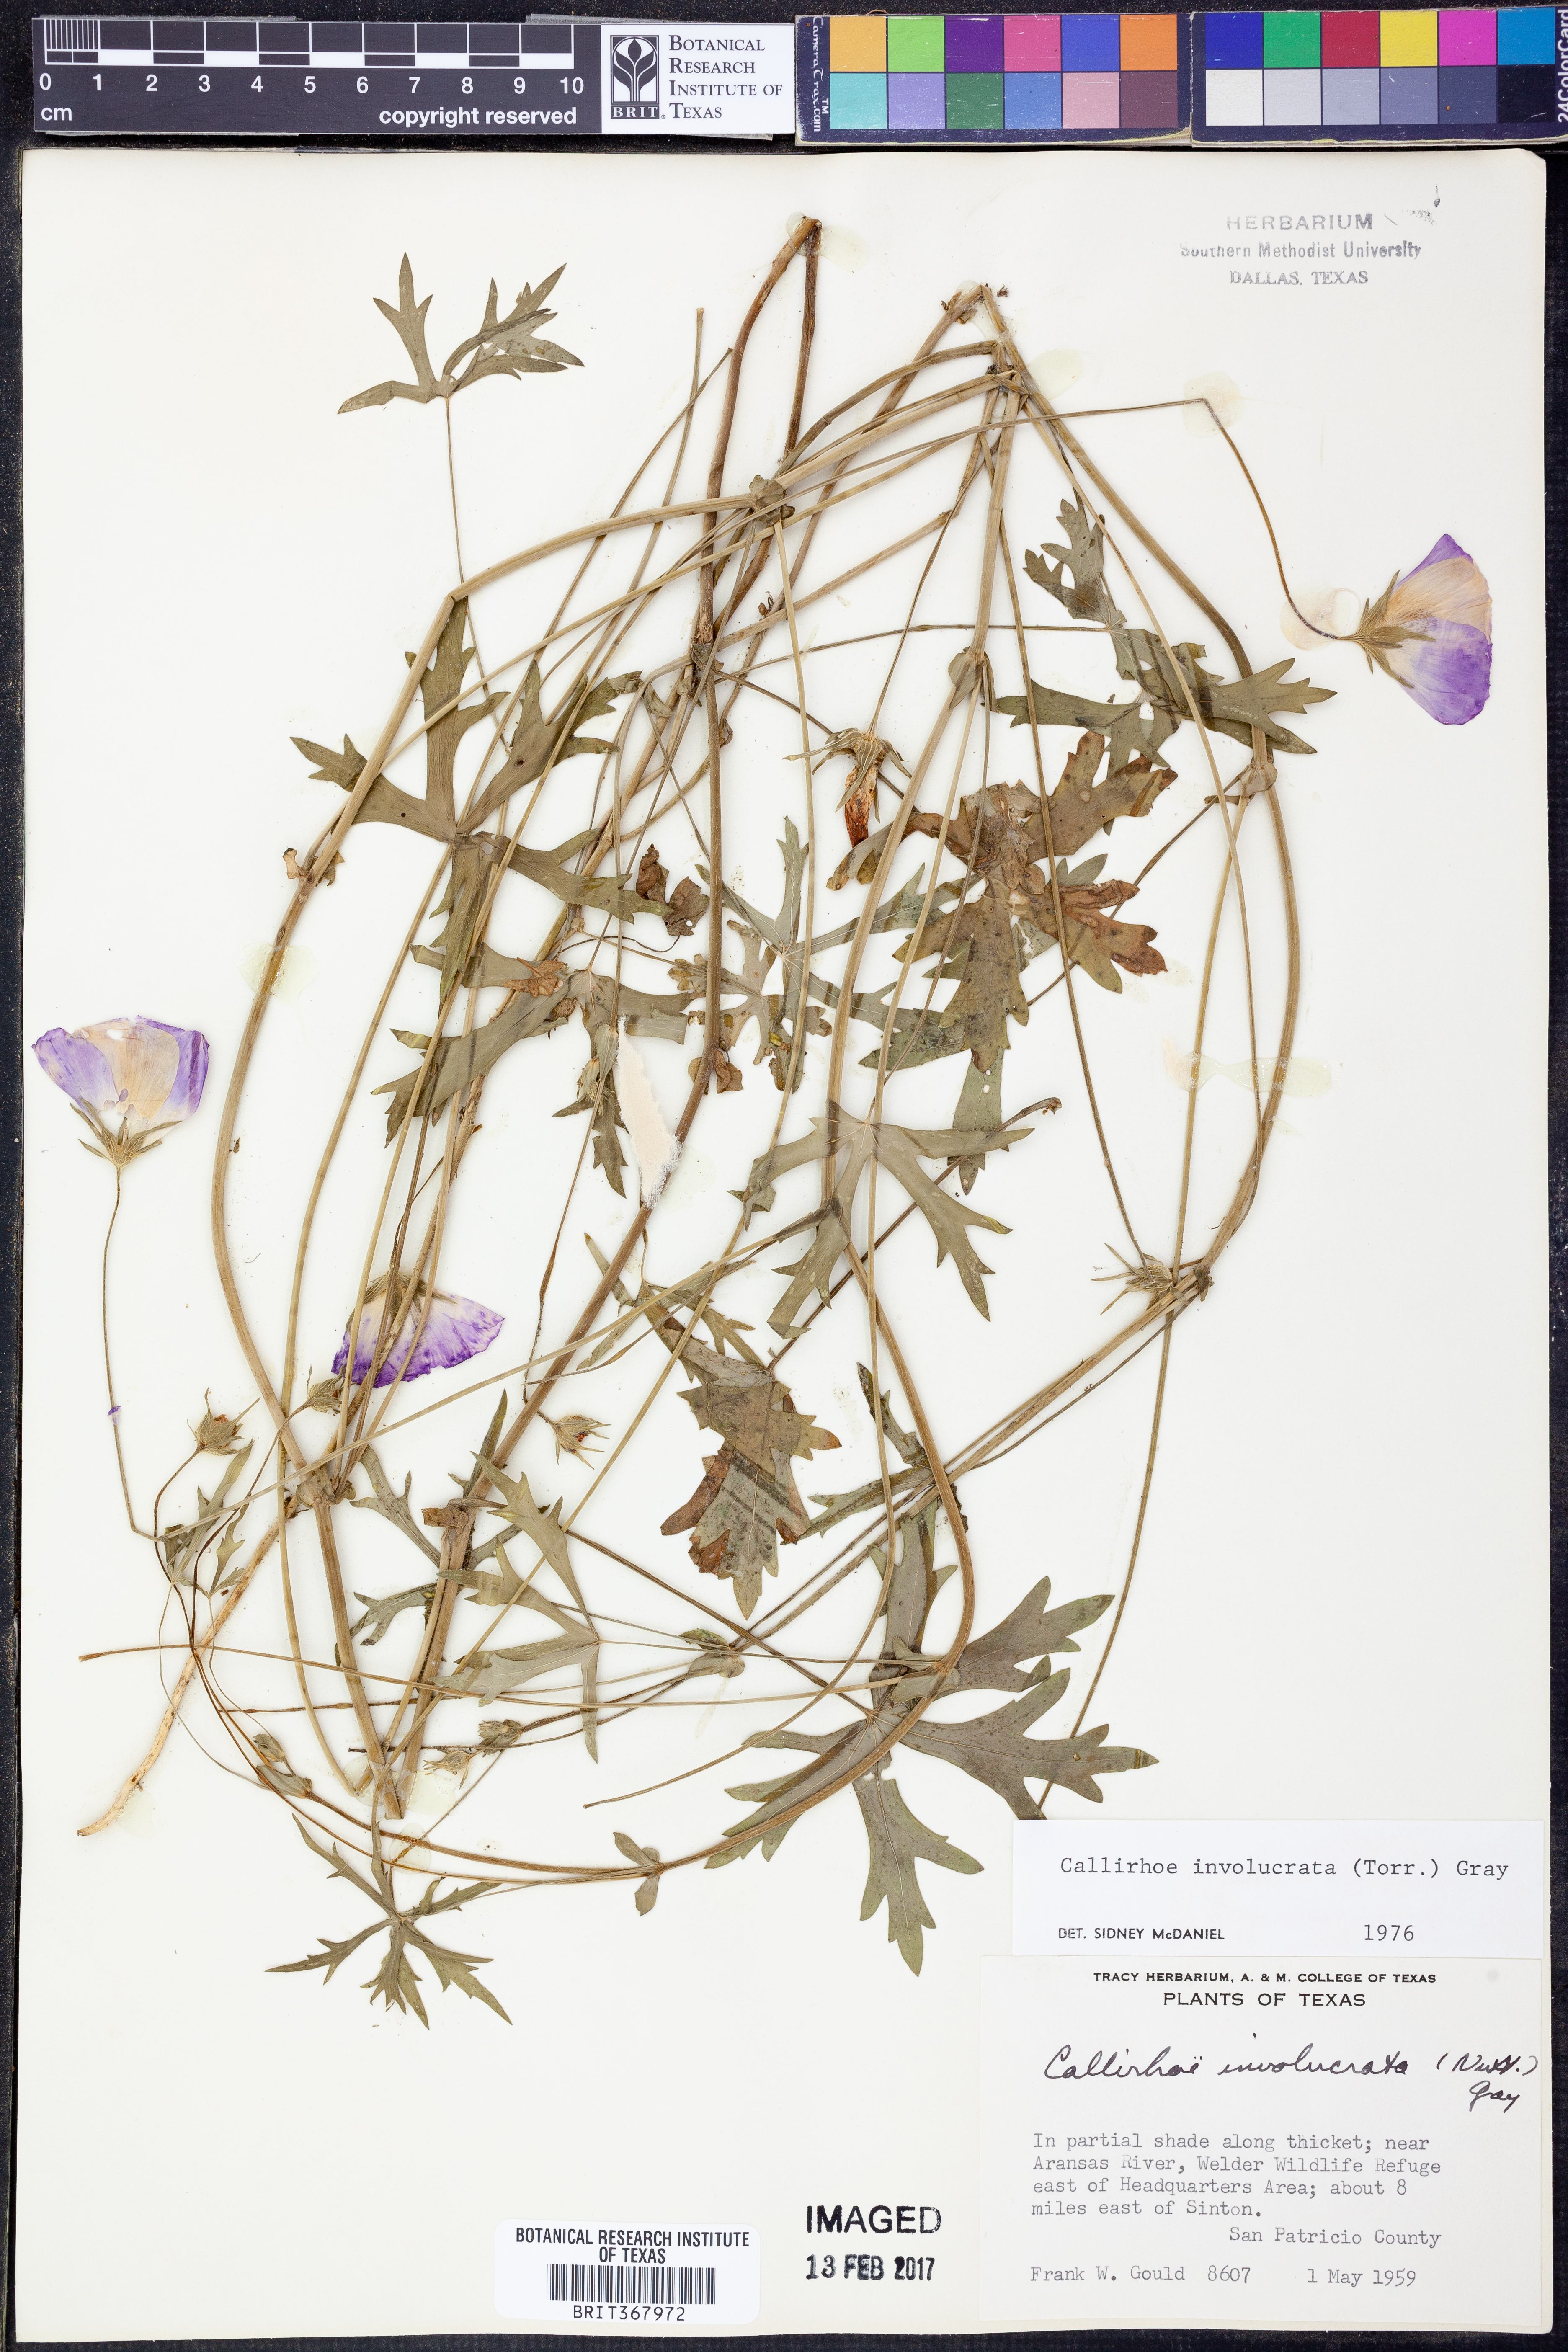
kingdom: Plantae
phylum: Tracheophyta
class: Magnoliopsida
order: Malvales
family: Malvaceae
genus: Callirhoe
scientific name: Callirhoe involucrata
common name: Purple poppy-mallow
